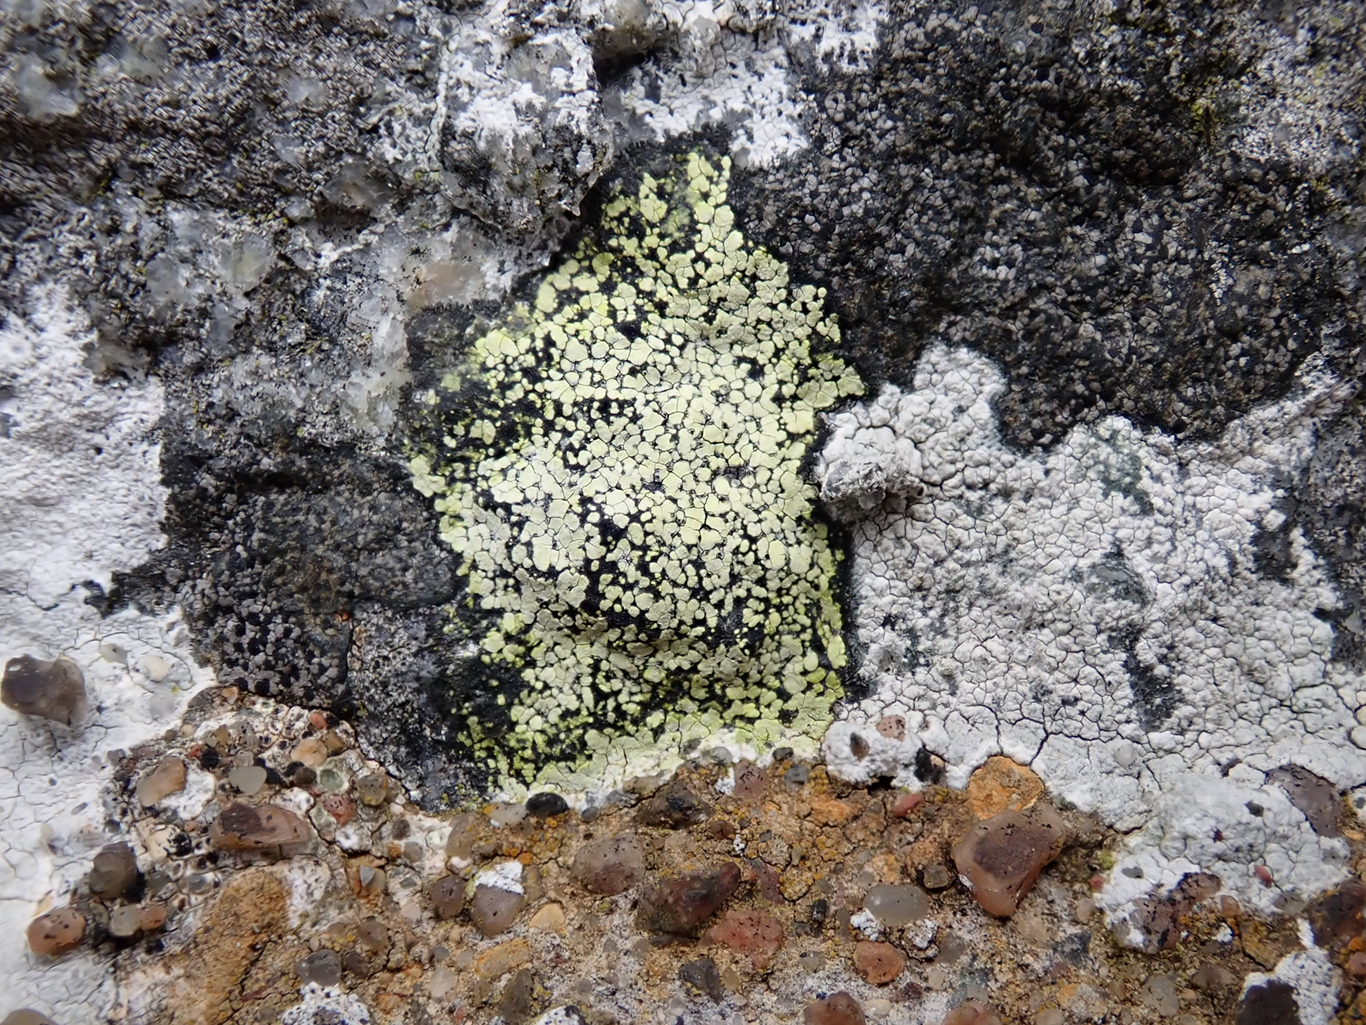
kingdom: Fungi
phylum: Ascomycota
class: Lecanoromycetes
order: Rhizocarpales
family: Rhizocarpaceae
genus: Rhizocarpon
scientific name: Rhizocarpon geographicum
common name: gulgrøn landkortlav
